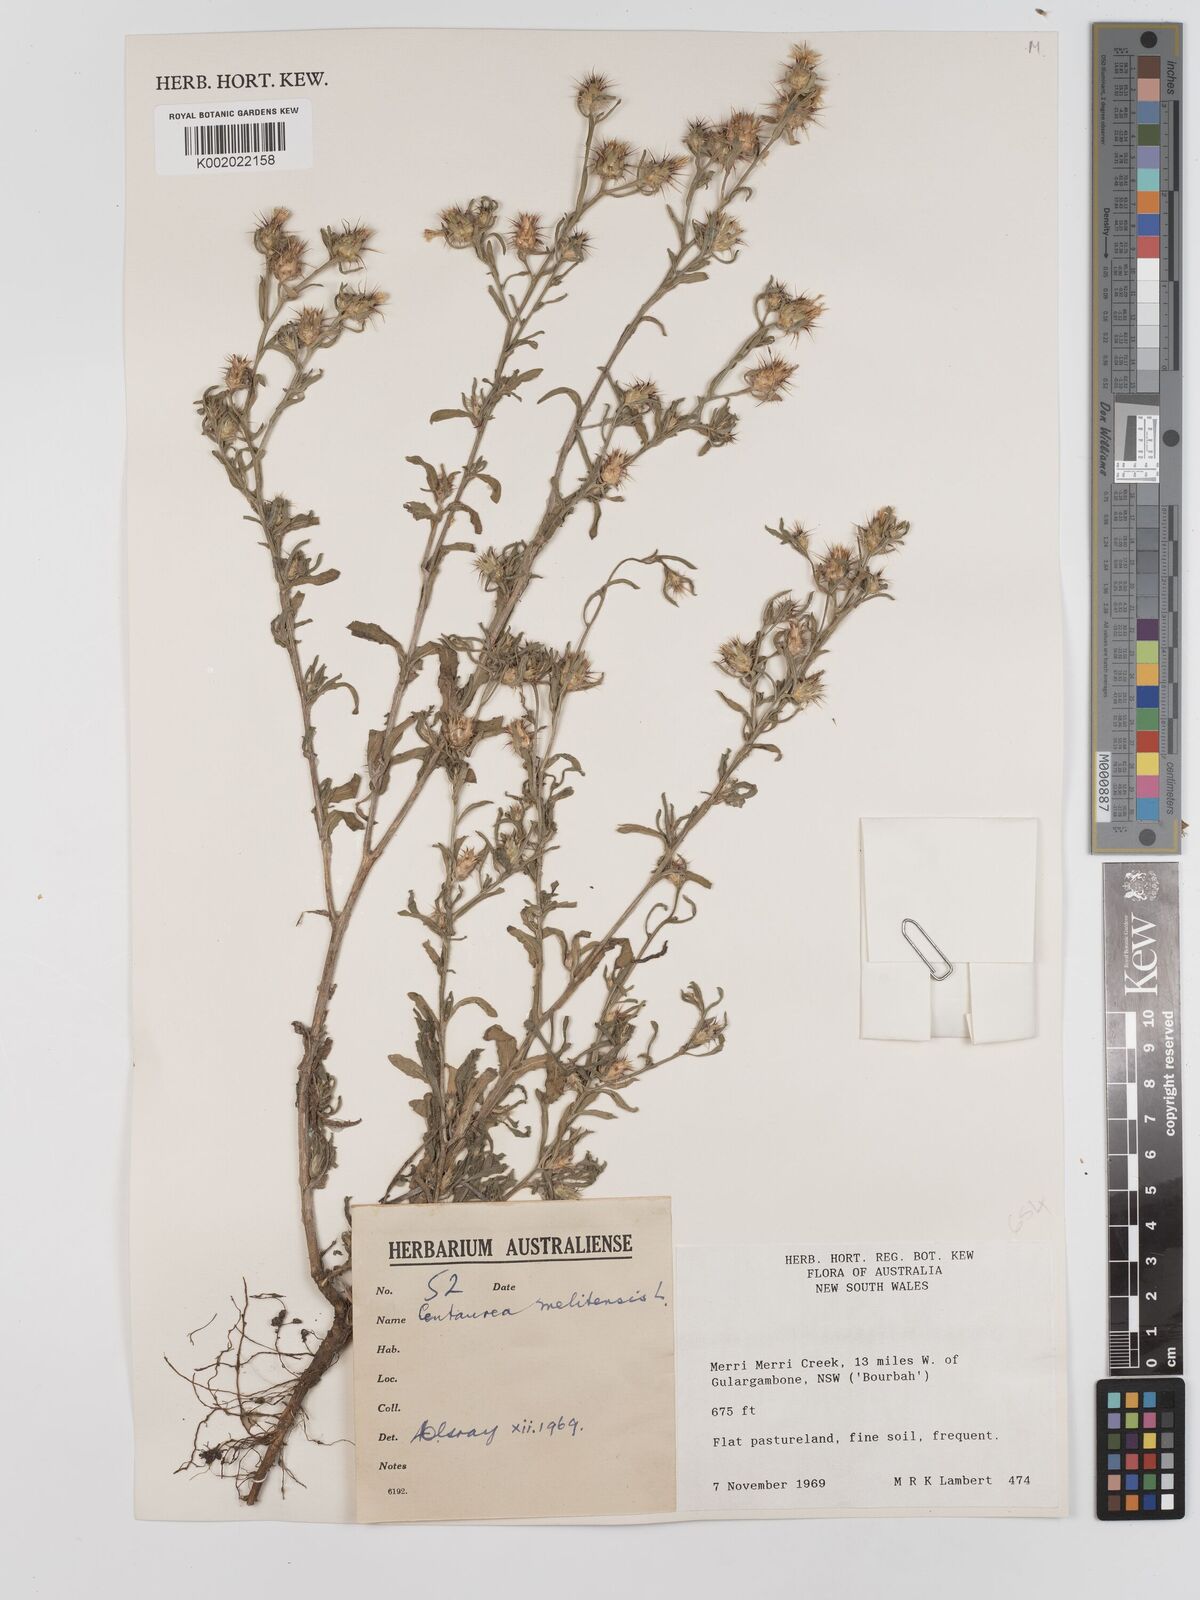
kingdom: Plantae
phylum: Tracheophyta
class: Magnoliopsida
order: Asterales
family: Asteraceae
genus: Centaurea
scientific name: Centaurea melitensis
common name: Maltese star-thistle
